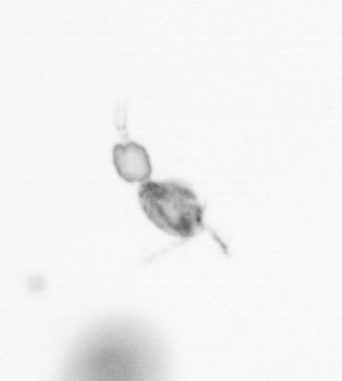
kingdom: Animalia
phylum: Arthropoda
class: Copepoda
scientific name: Copepoda
